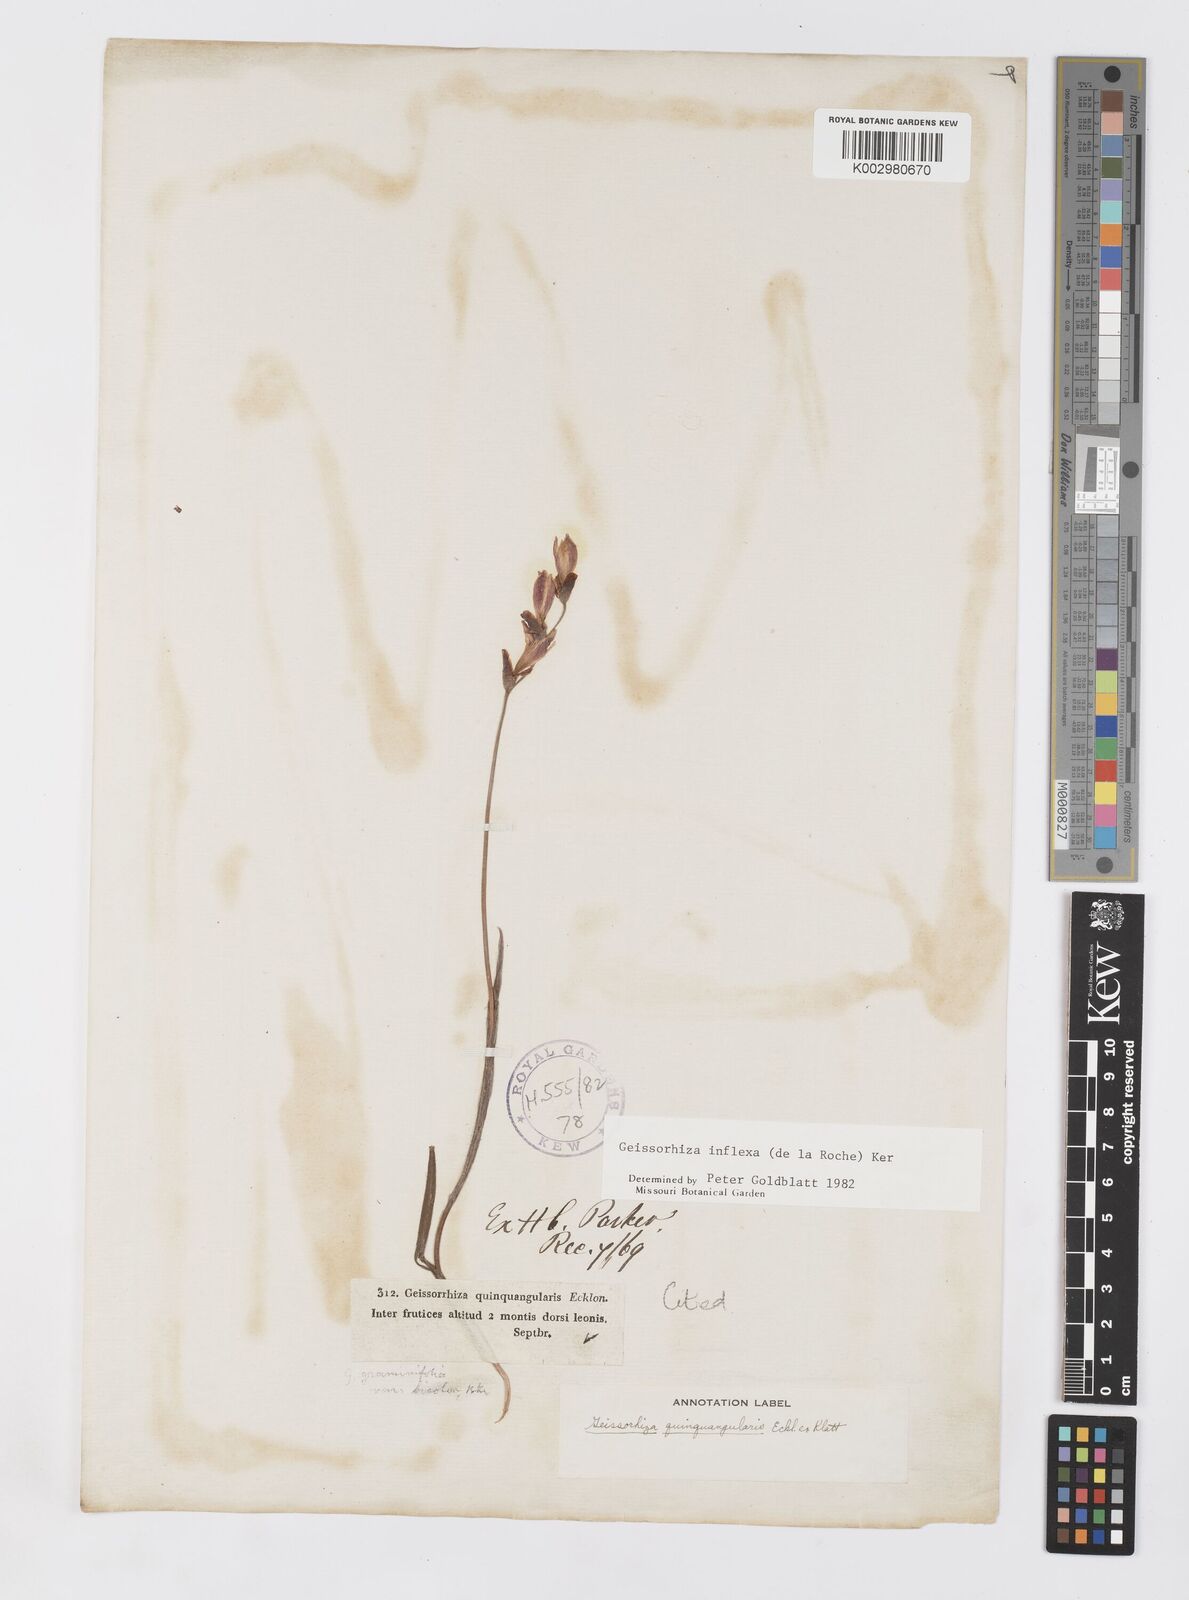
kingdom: Plantae
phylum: Tracheophyta
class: Liliopsida
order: Asparagales
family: Iridaceae
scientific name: Iridaceae
